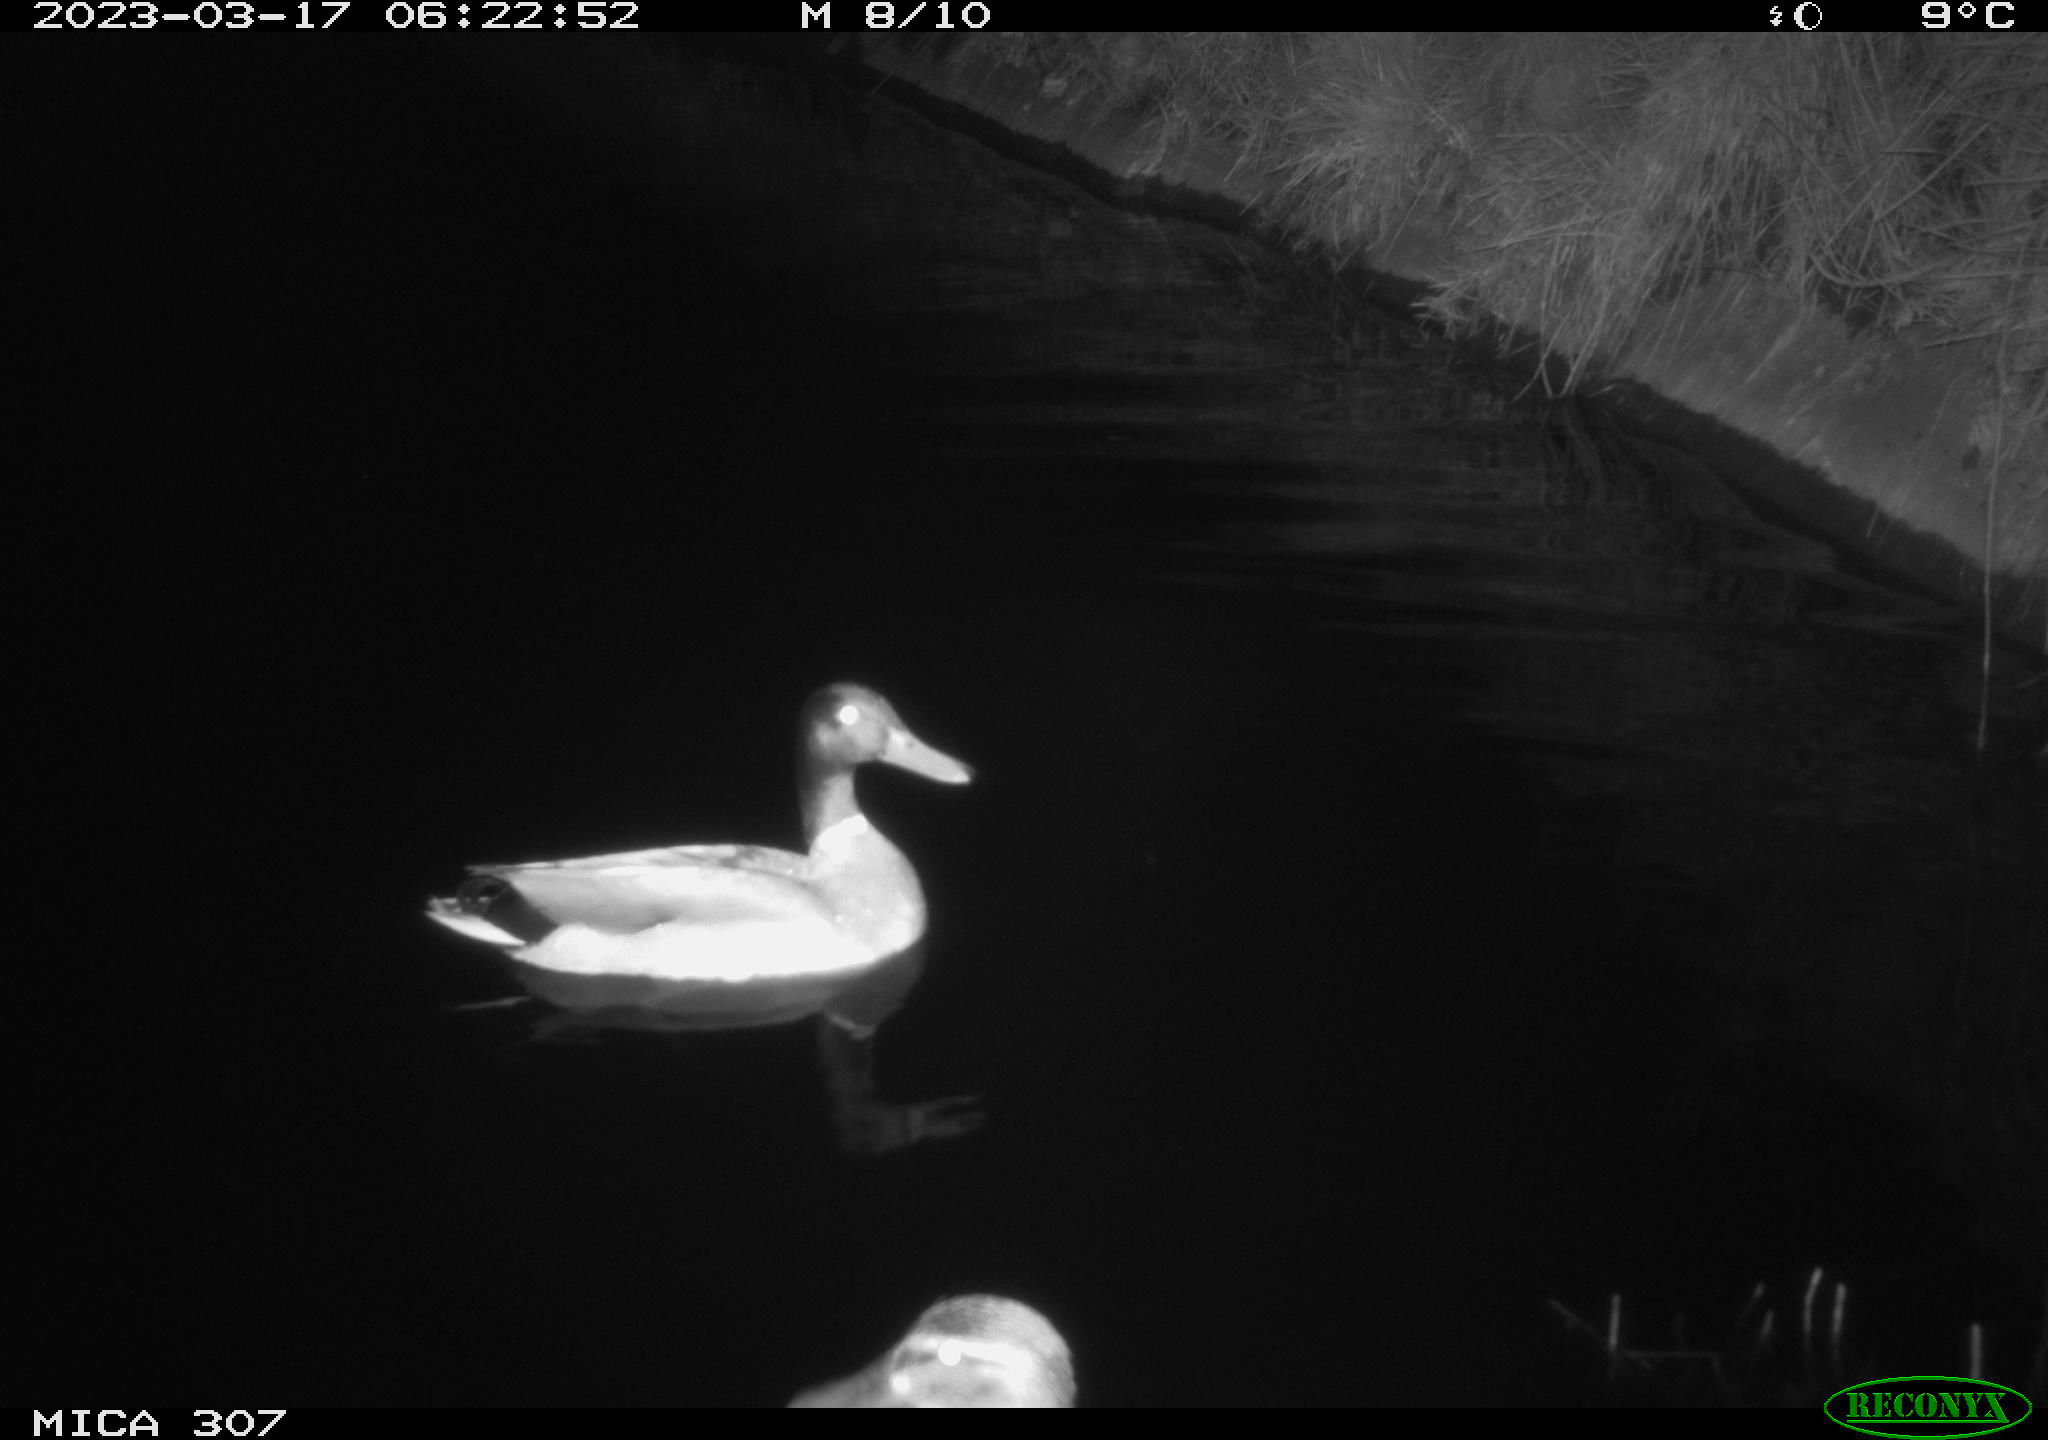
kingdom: Animalia
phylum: Chordata
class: Aves
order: Anseriformes
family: Anatidae
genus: Anas
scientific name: Anas
